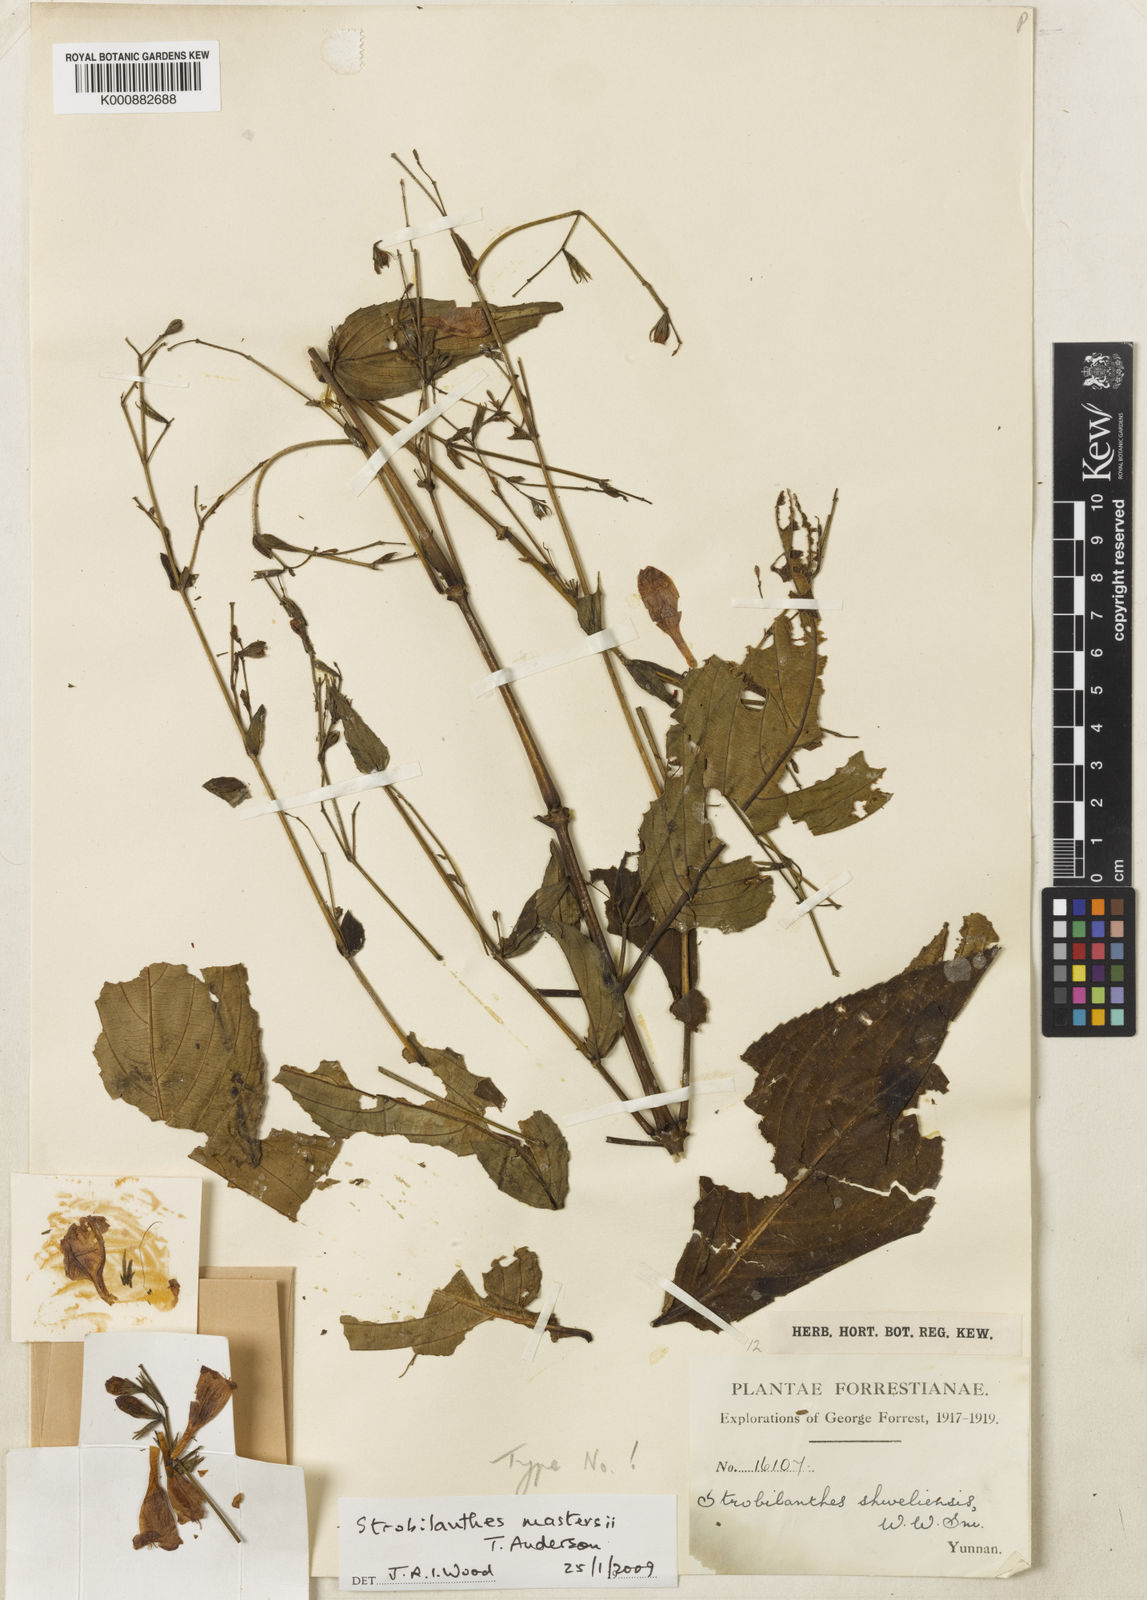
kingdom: Plantae
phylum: Tracheophyta
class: Magnoliopsida
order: Lamiales
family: Acanthaceae
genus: Strobilanthes
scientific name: Strobilanthes mastersii
